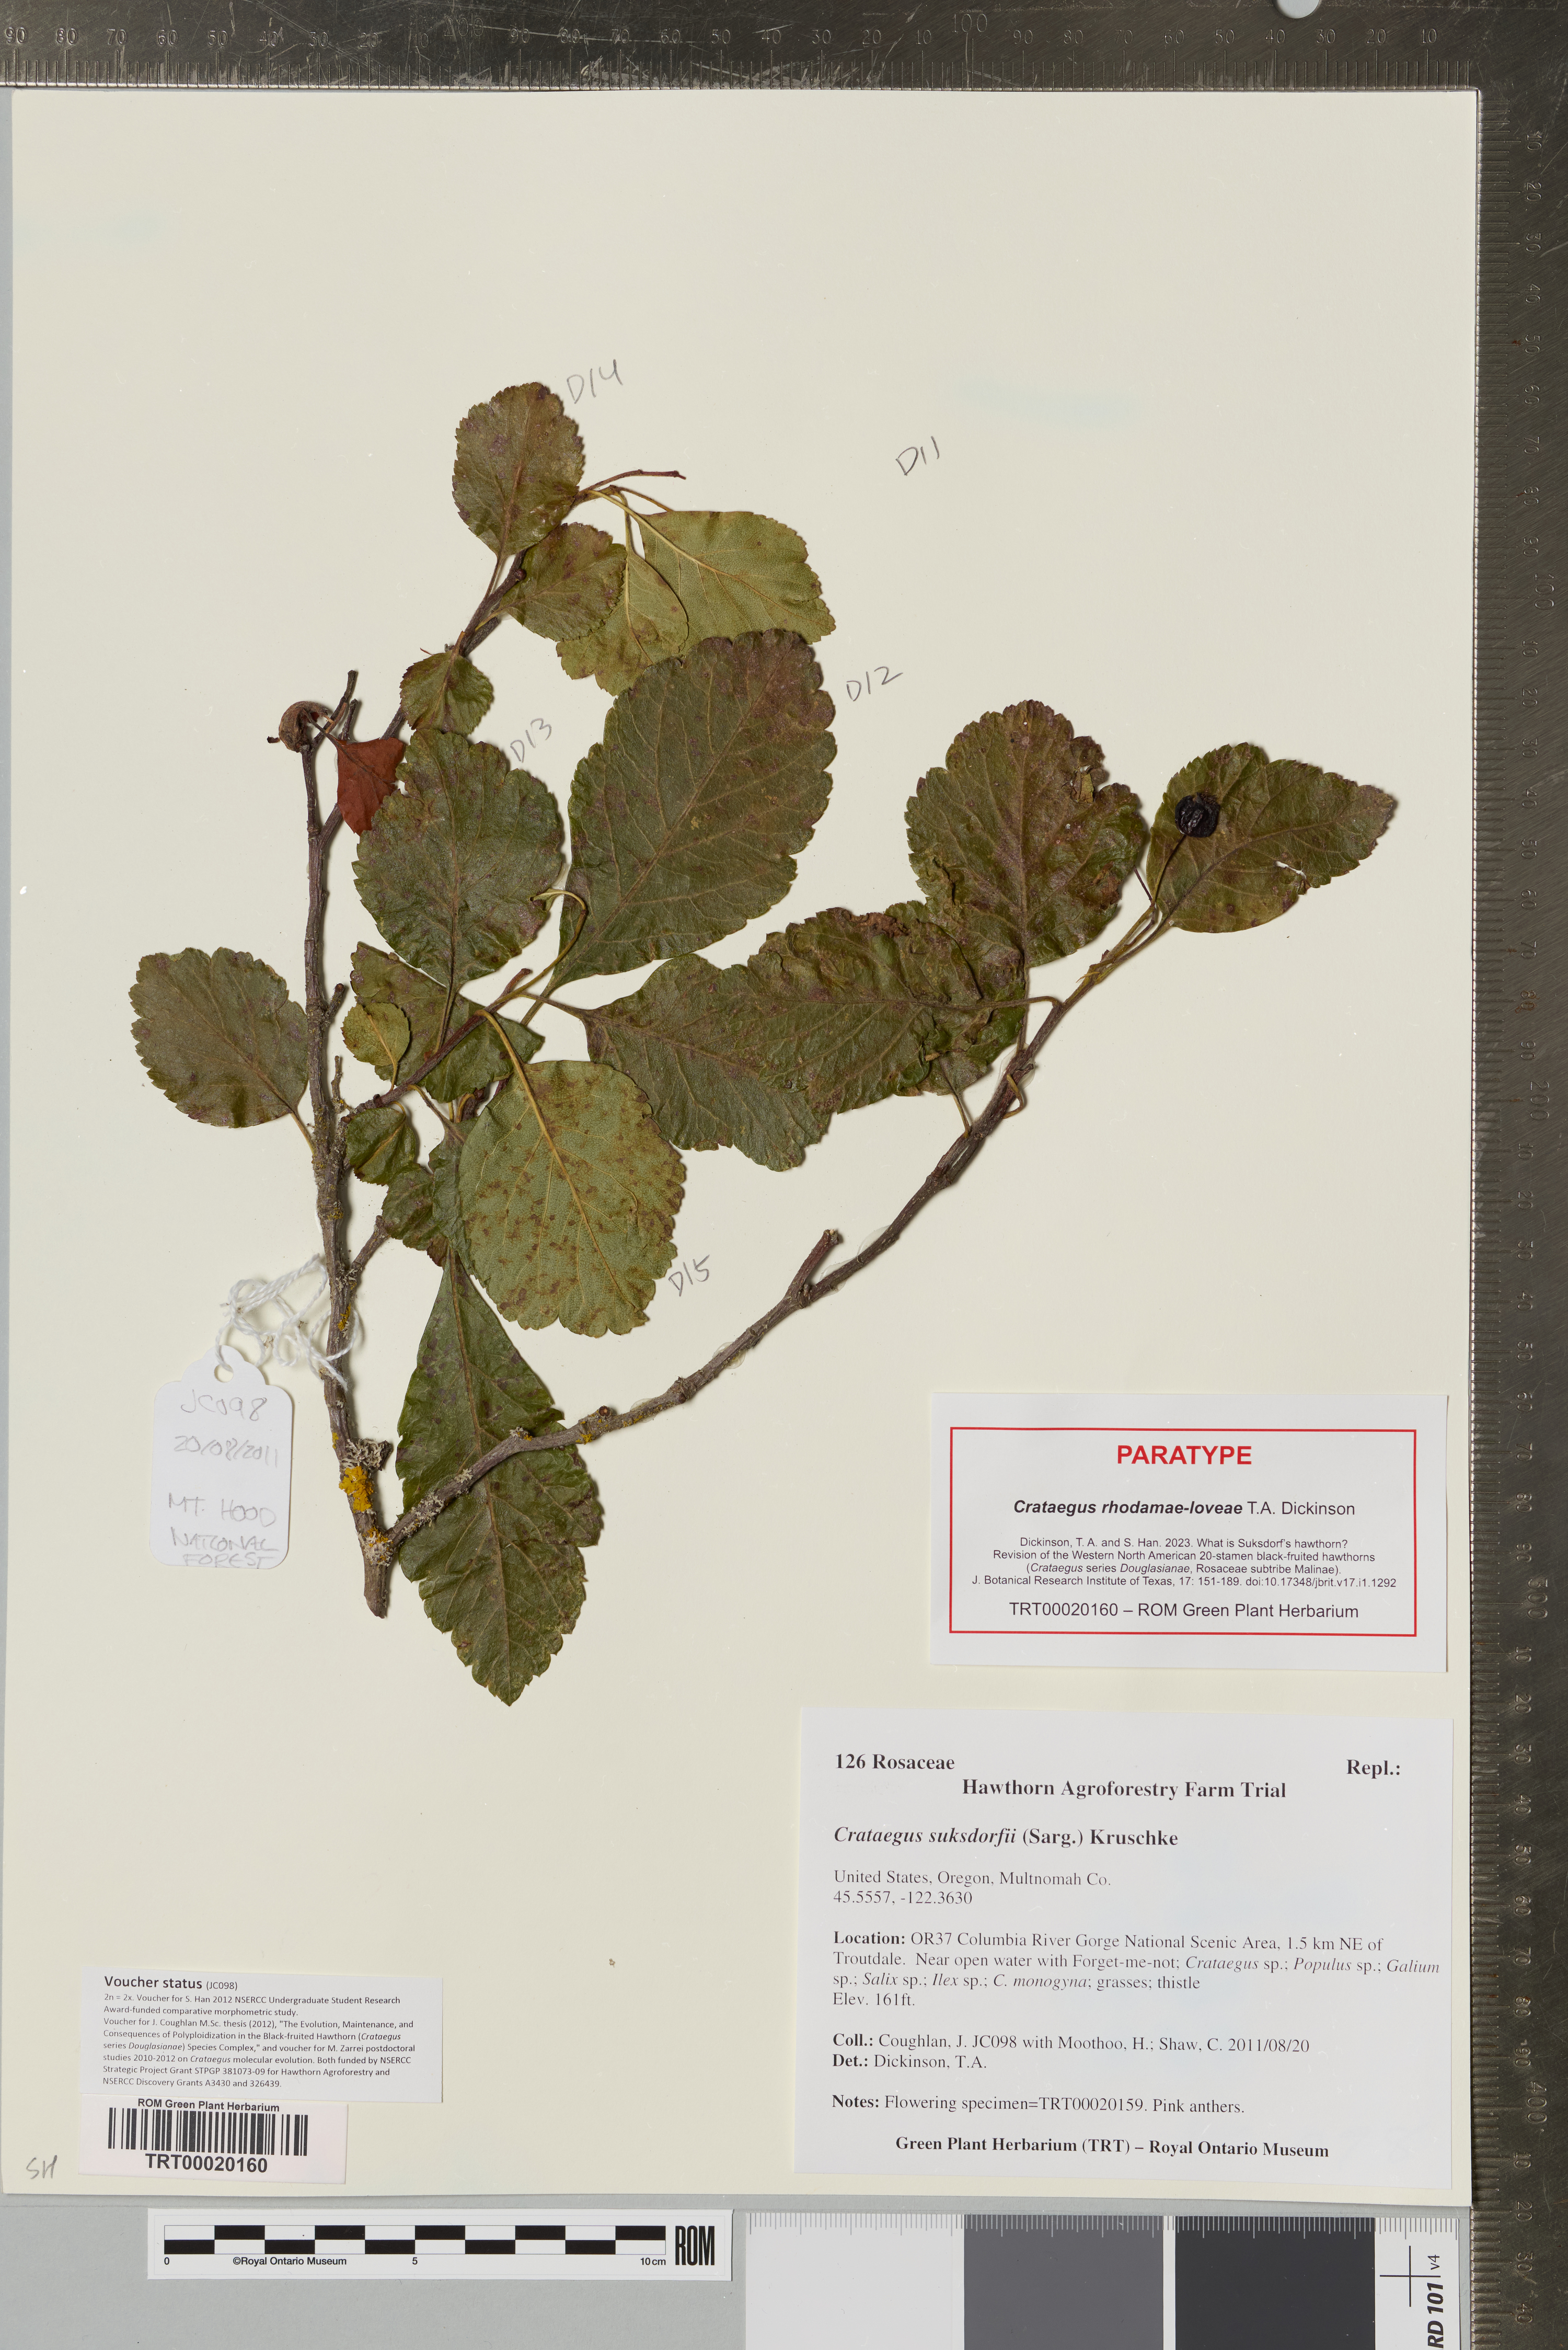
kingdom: Plantae
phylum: Tracheophyta
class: Magnoliopsida
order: Rosales
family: Rosaceae
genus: Crataegus
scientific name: Crataegus gaylussacia
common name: Huckleberry hawthorn
